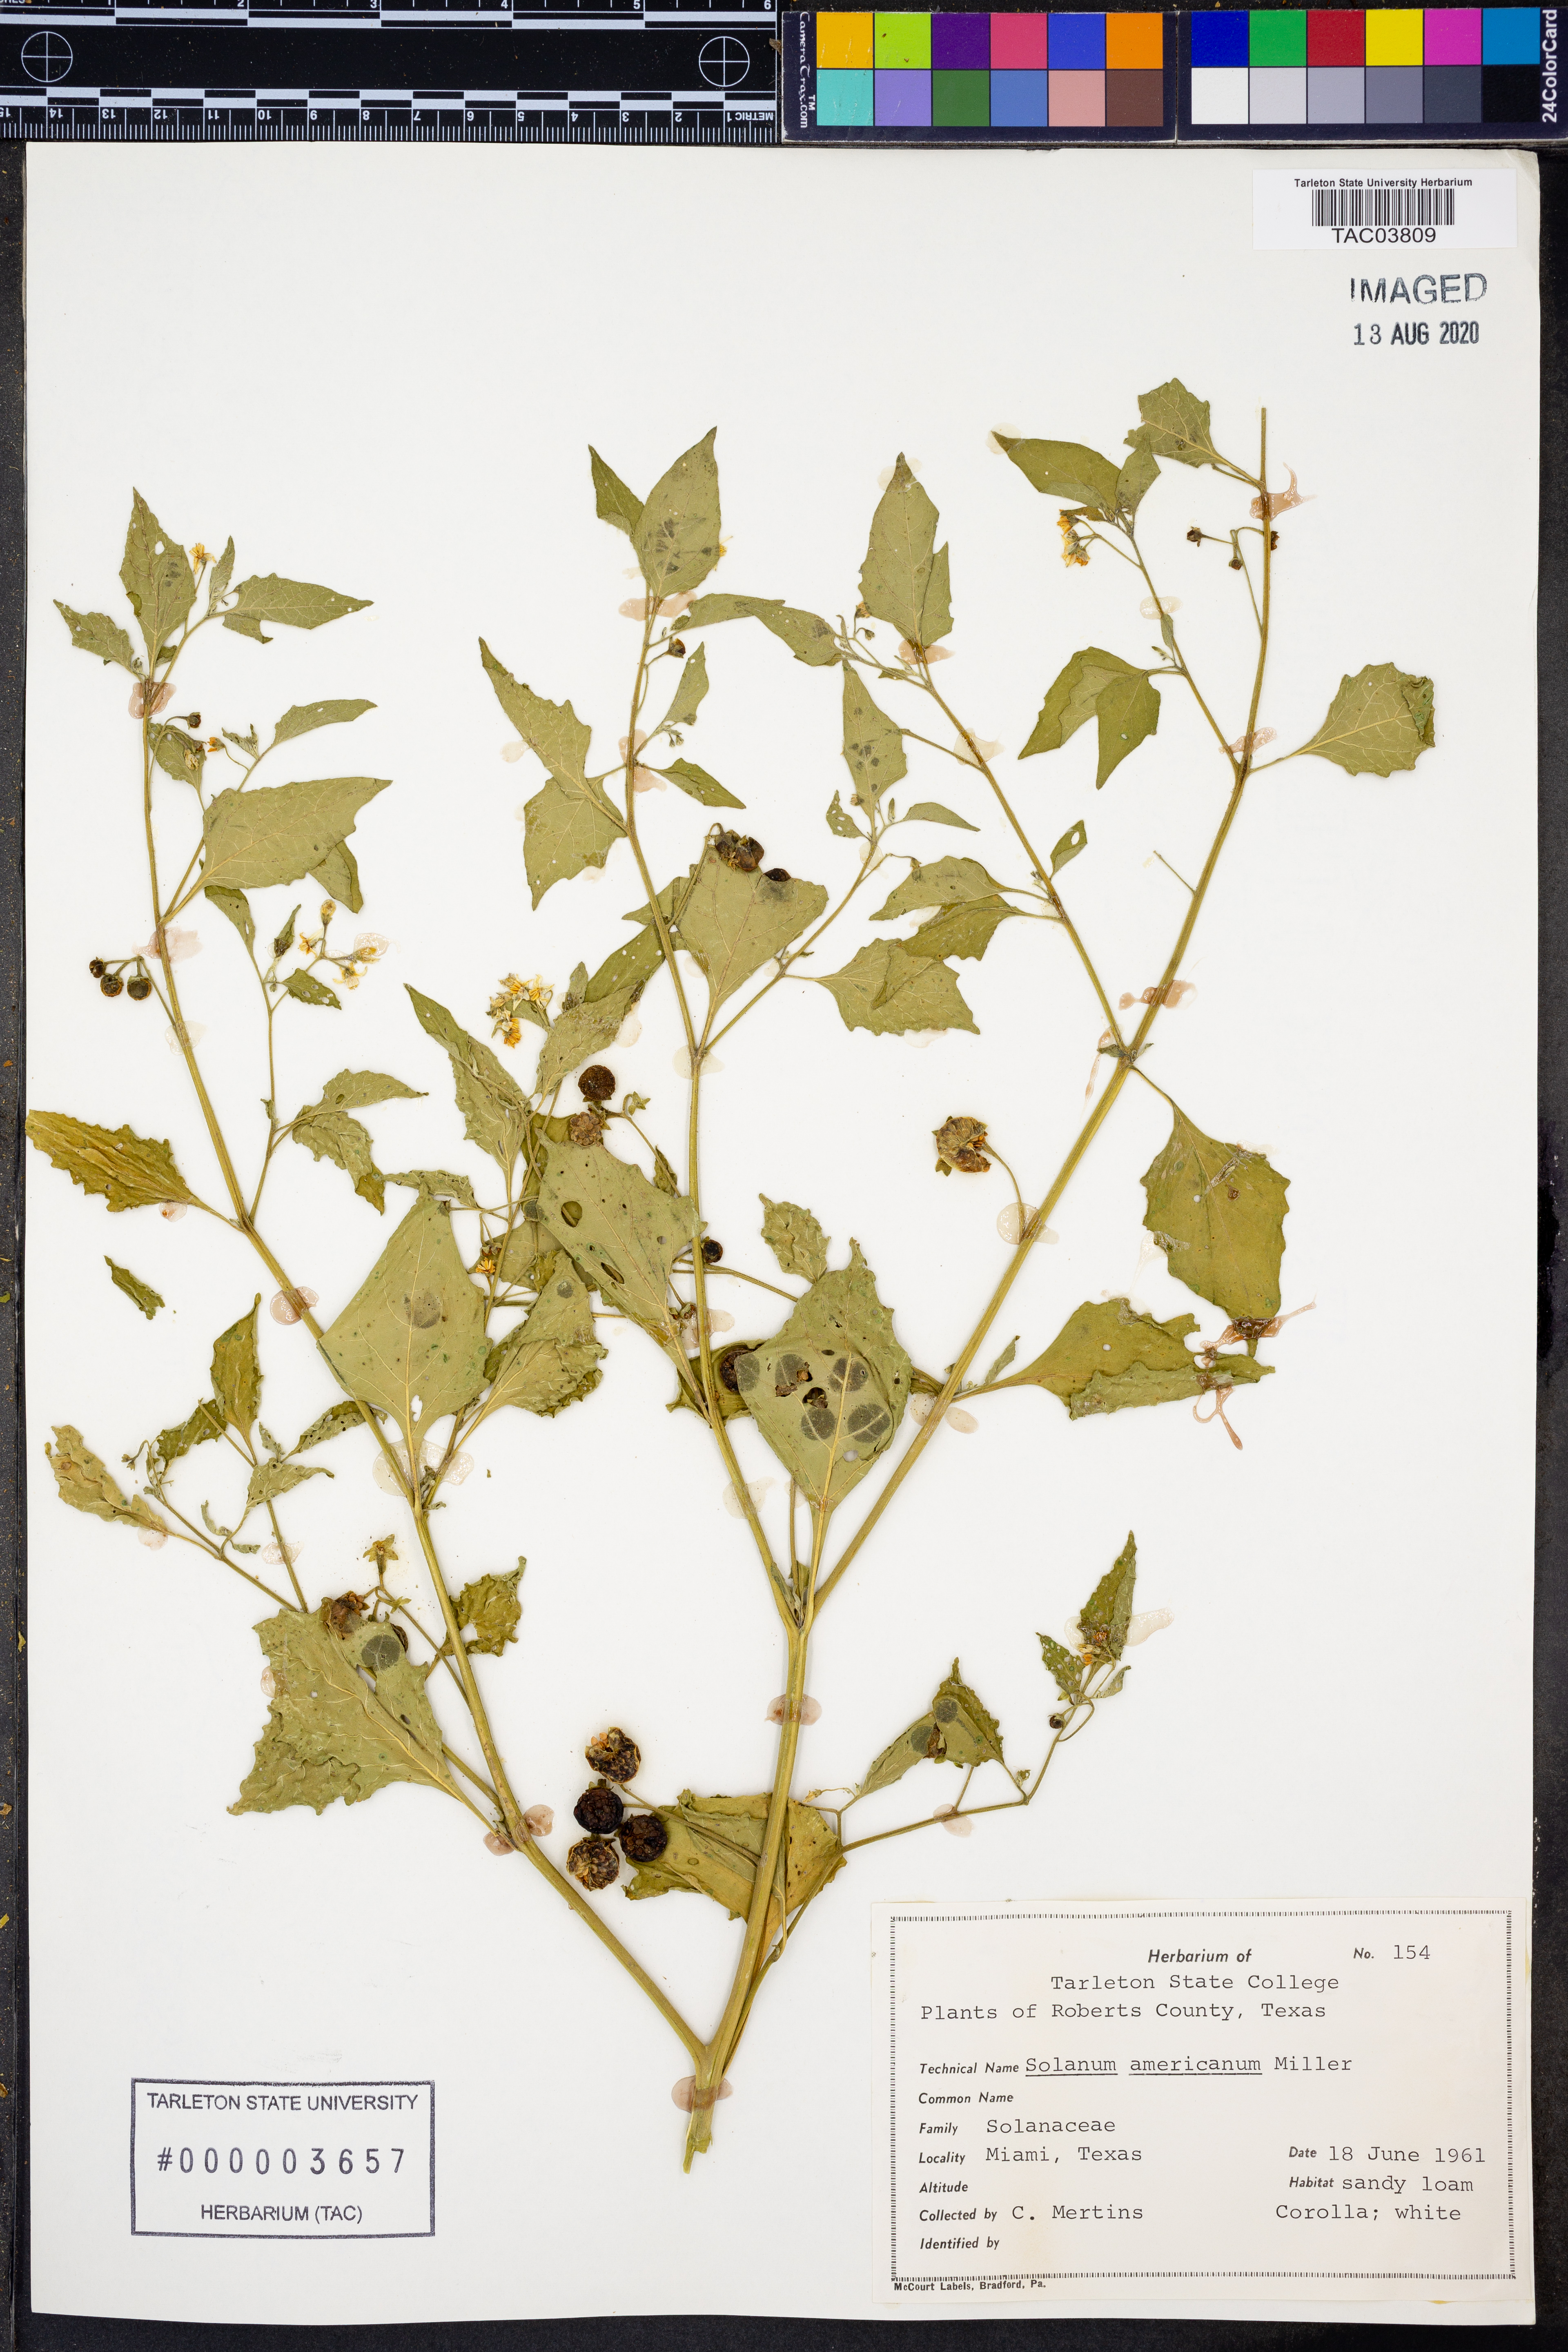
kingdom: Plantae
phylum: Tracheophyta
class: Magnoliopsida
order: Solanales
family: Solanaceae
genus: Solanum
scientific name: Solanum americanum
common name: American black nightshade
